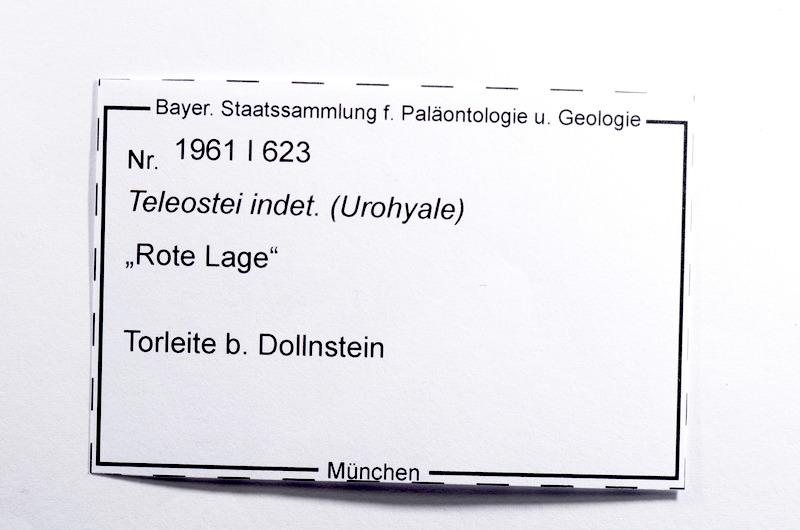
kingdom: Animalia
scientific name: Animalia
